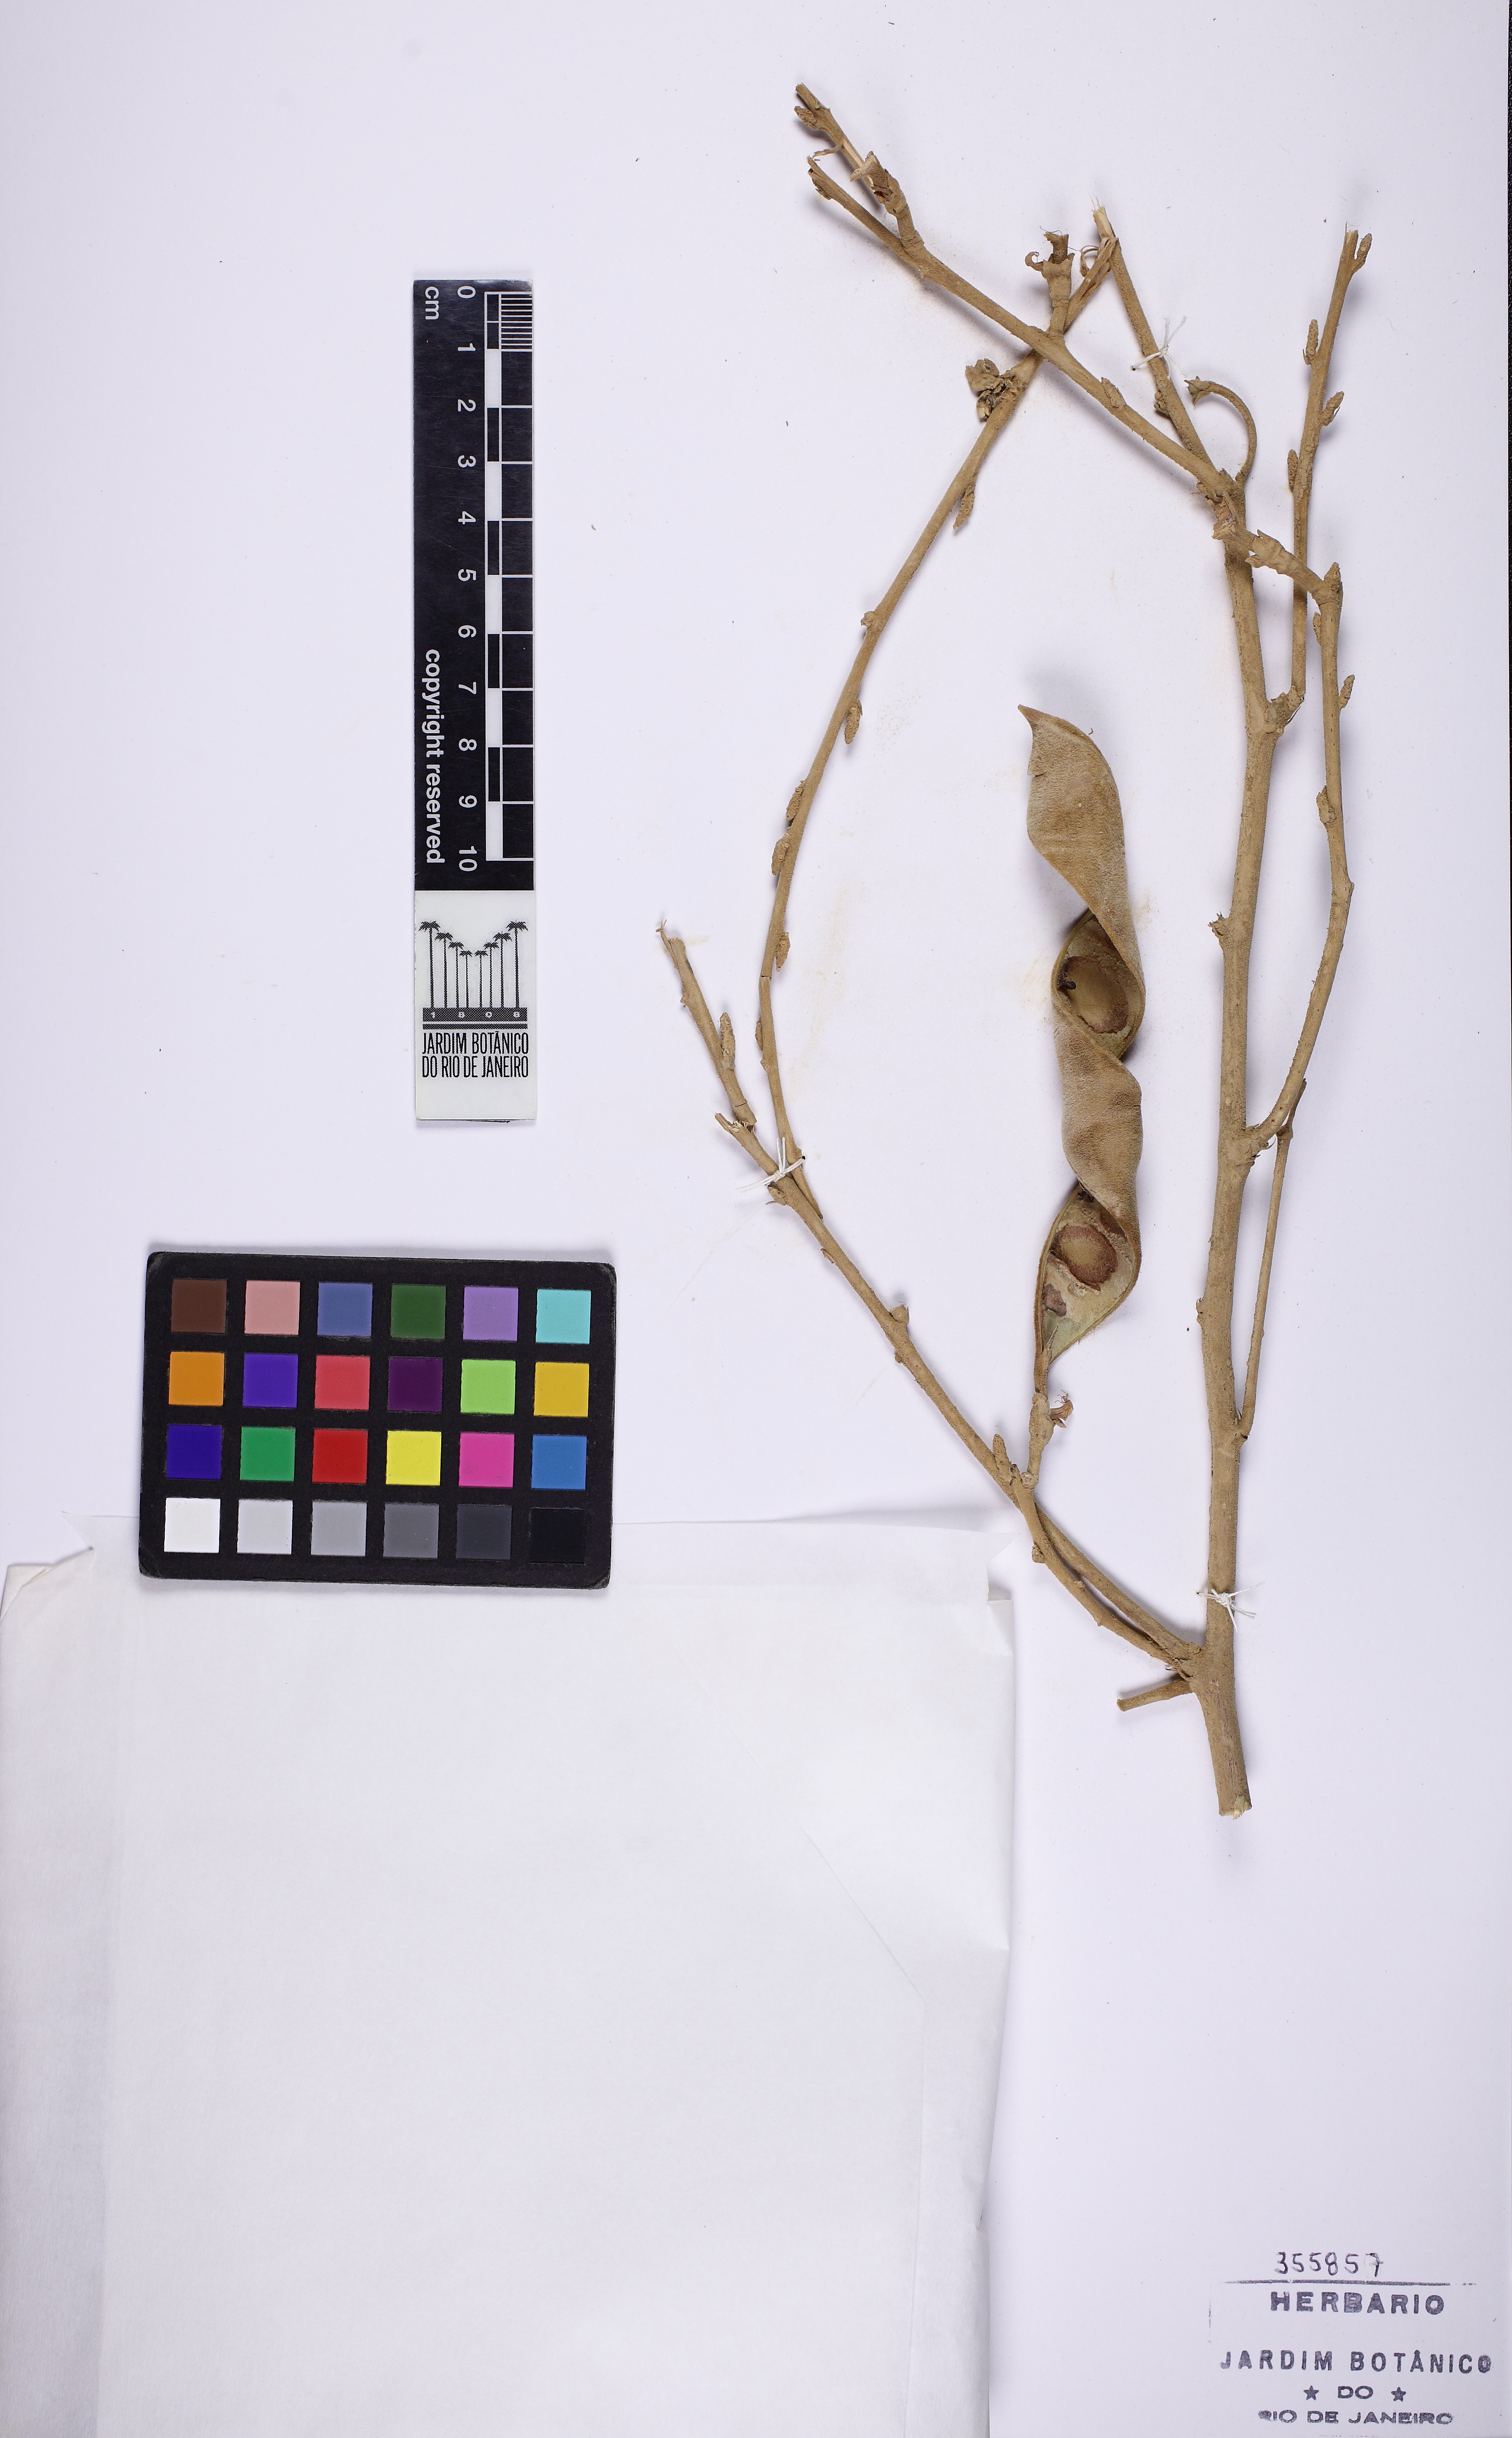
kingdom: Plantae
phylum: Tracheophyta
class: Magnoliopsida
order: Fabales
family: Fabaceae
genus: Cratylia
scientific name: Cratylia
